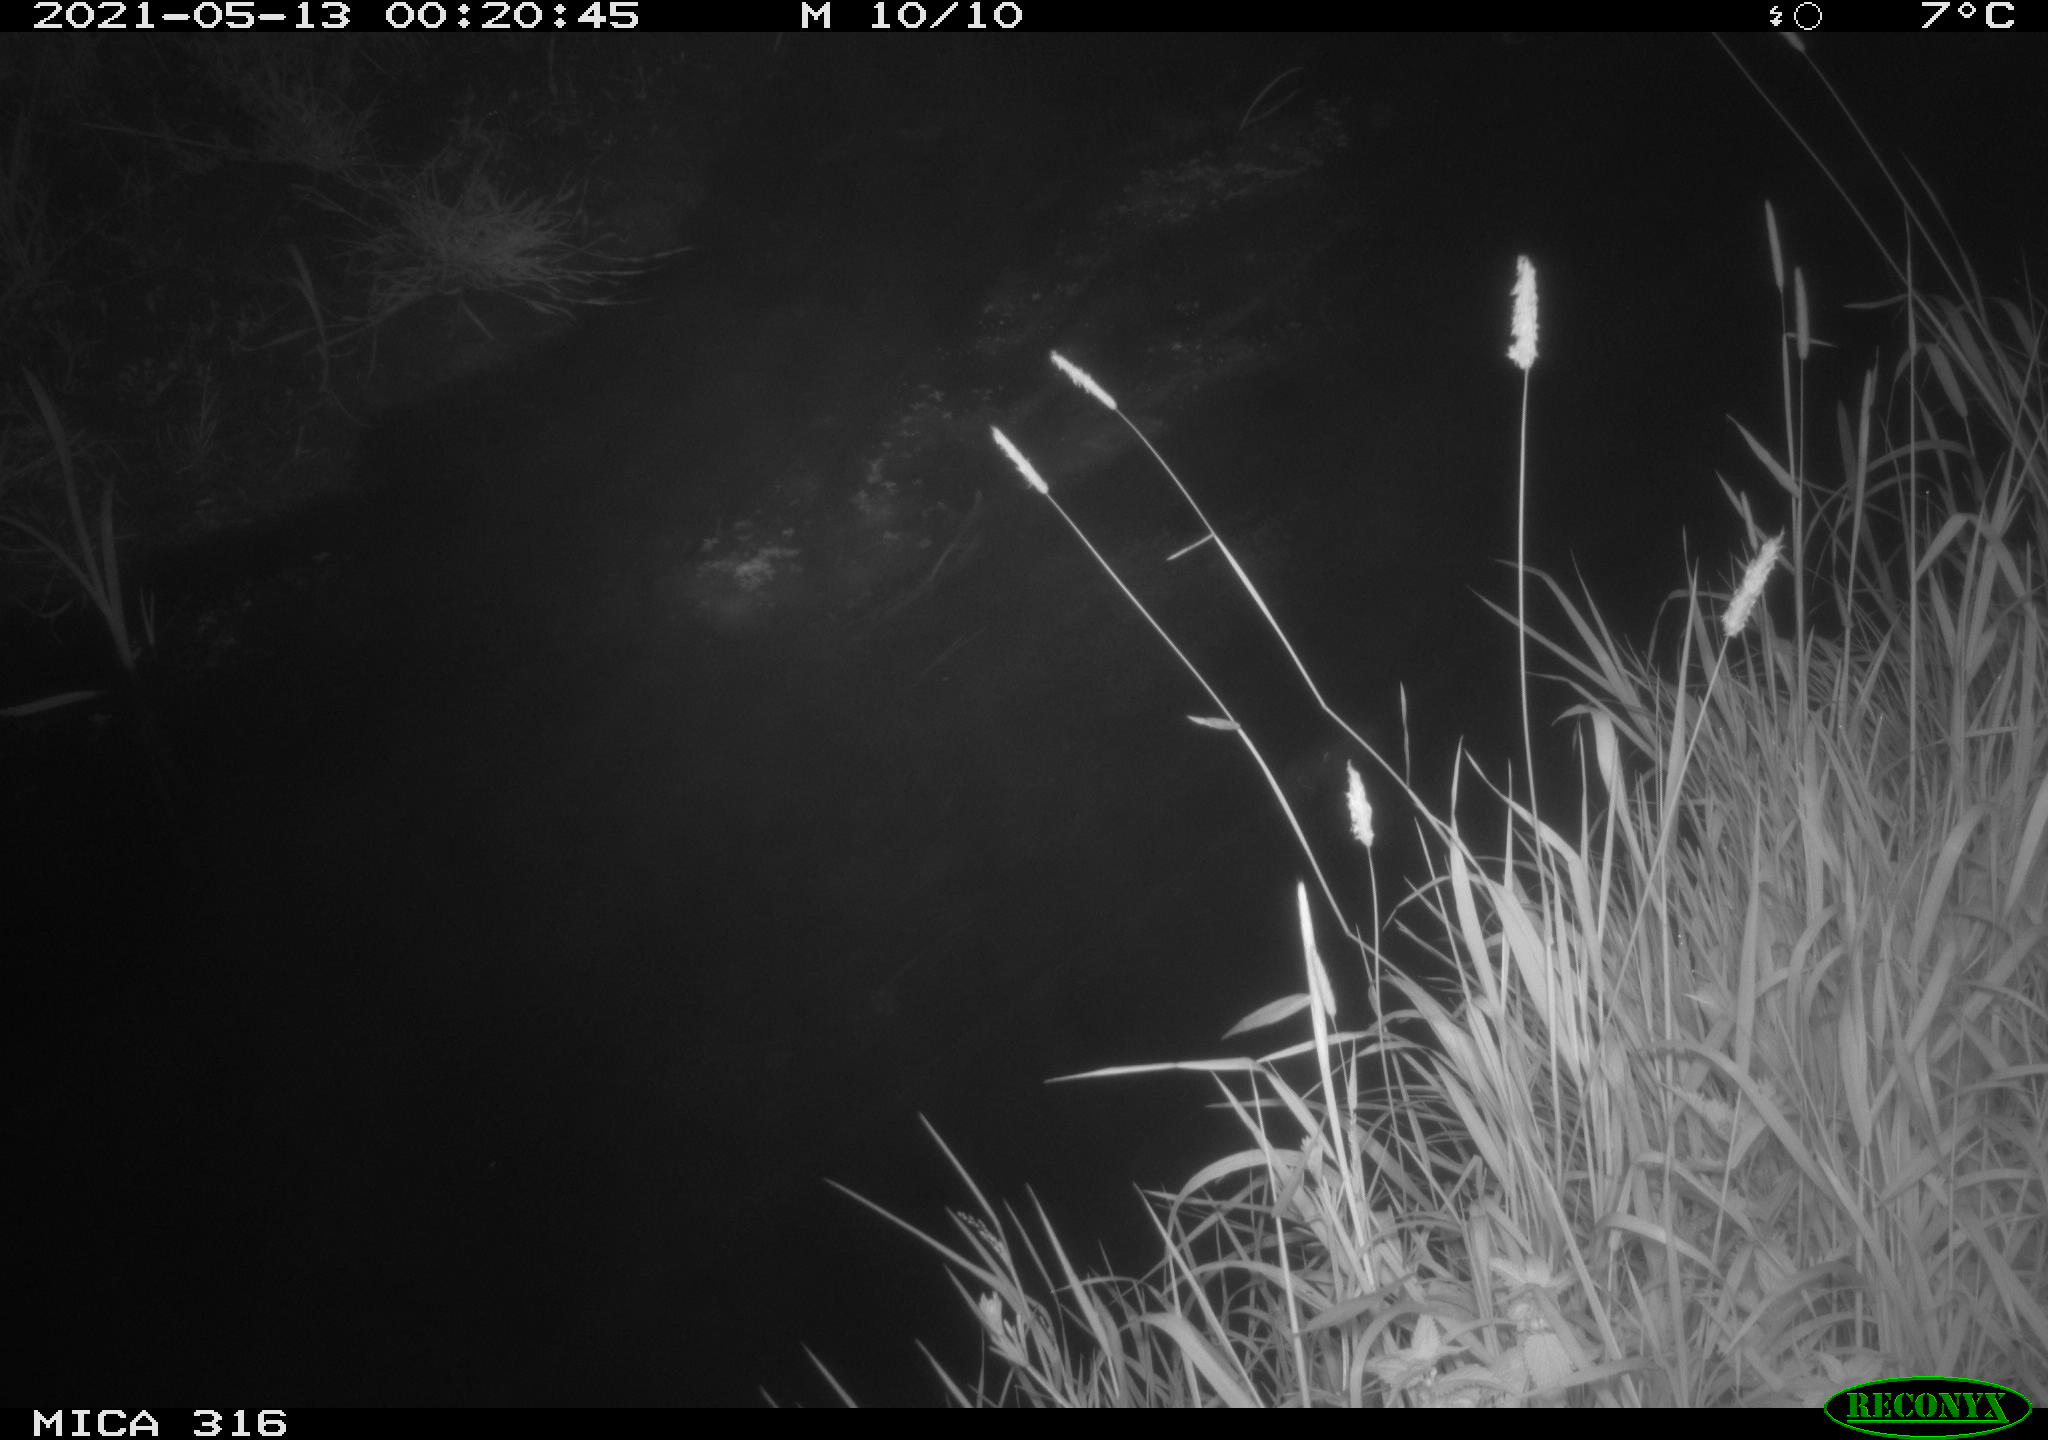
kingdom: Animalia
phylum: Chordata
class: Aves
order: Anseriformes
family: Anatidae
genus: Anas
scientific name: Anas platyrhynchos
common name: Mallard
